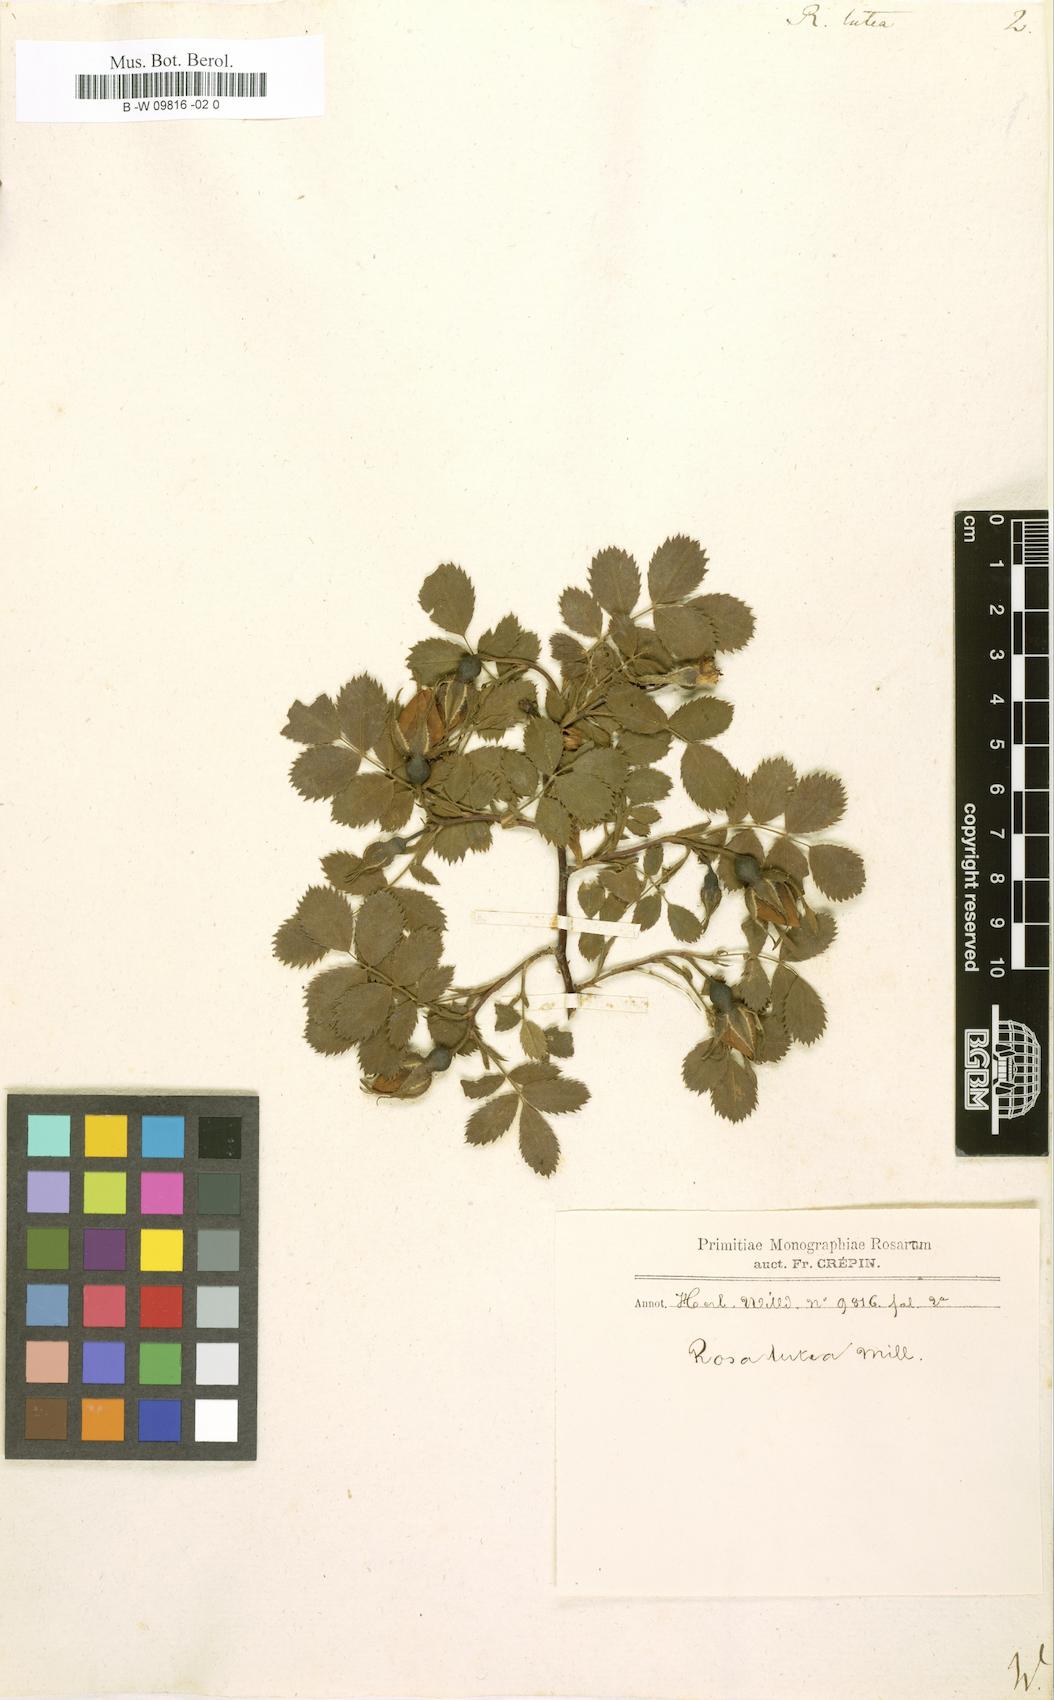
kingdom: Plantae
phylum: Tracheophyta
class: Magnoliopsida
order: Rosales
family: Rosaceae
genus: Rosa
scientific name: Rosa foetida
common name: Persian yellow rose
